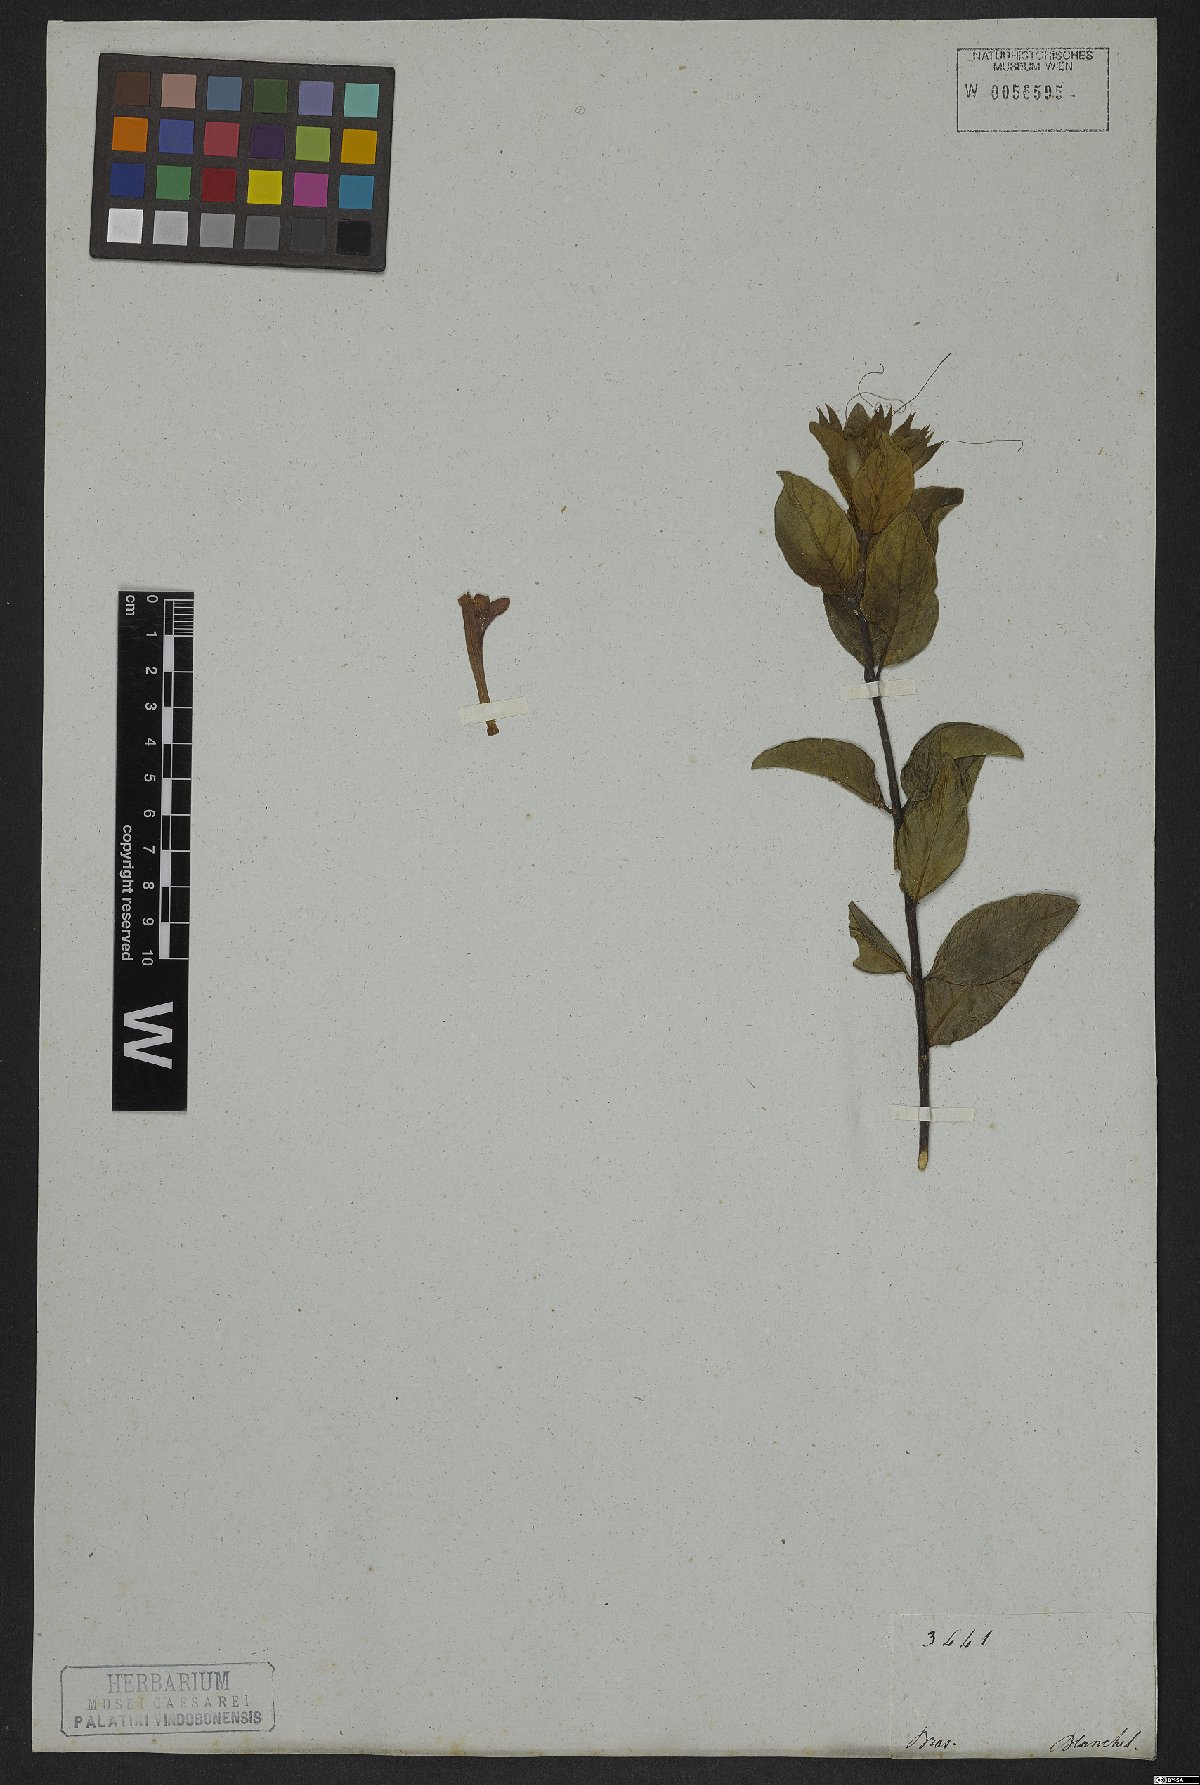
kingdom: Plantae
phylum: Tracheophyta
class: Magnoliopsida
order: Lamiales
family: Acanthaceae
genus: Ruellia
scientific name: Ruellia nitens
